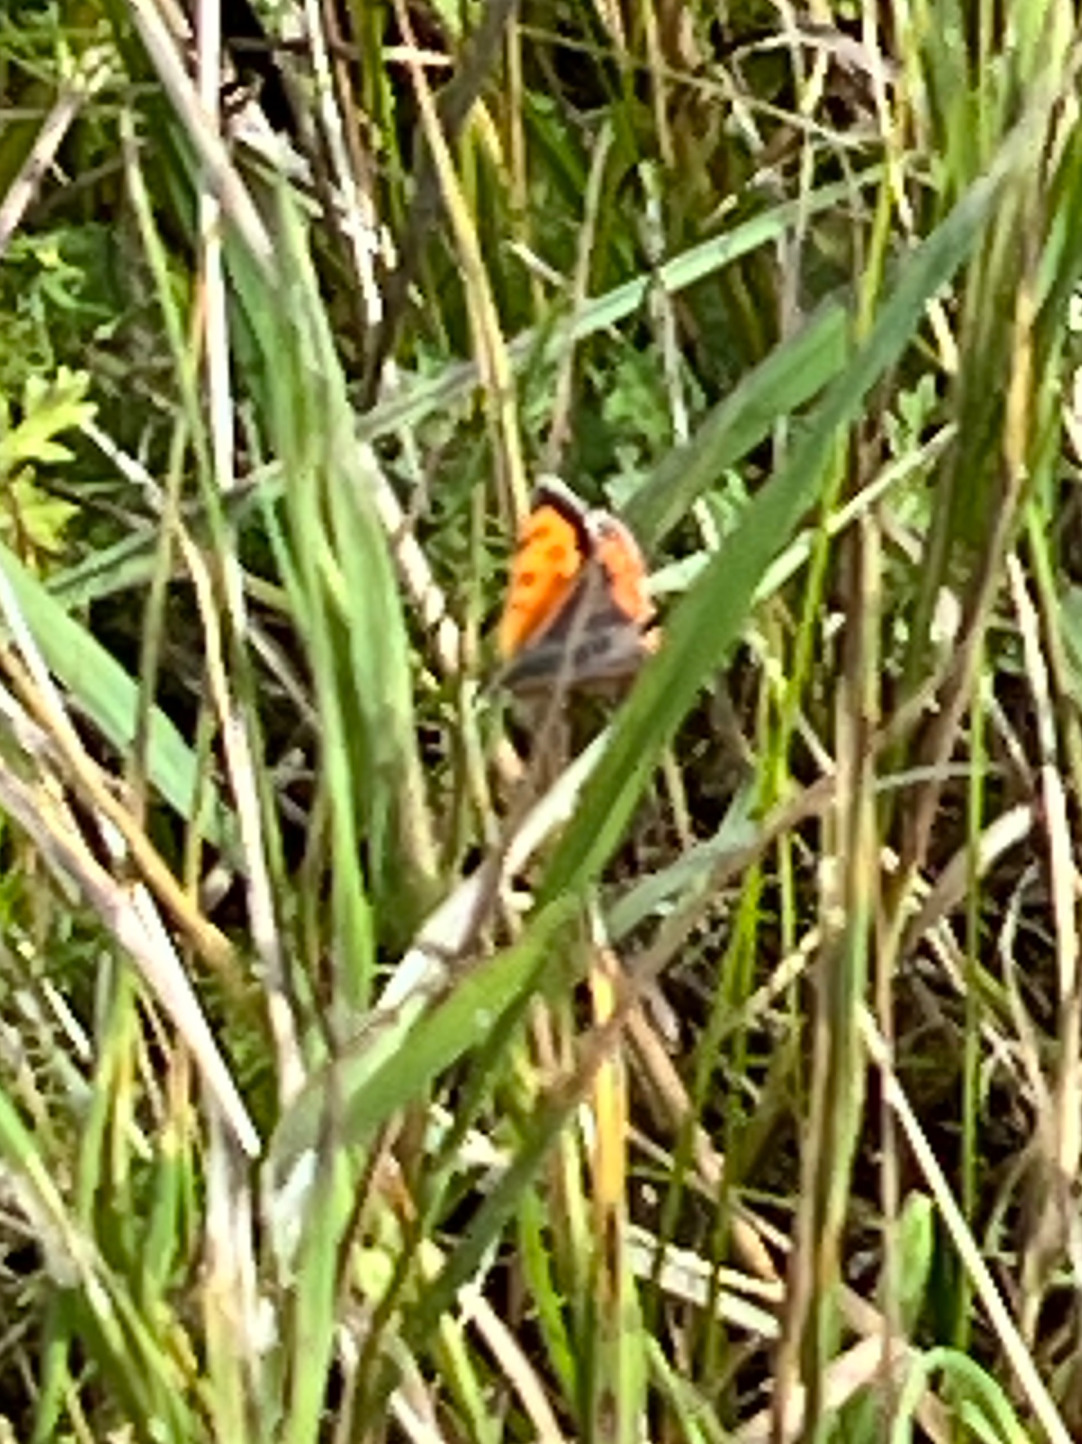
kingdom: Animalia
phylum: Arthropoda
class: Insecta
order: Lepidoptera
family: Lycaenidae
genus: Lycaena
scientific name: Lycaena phlaeas
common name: Lille ildfugl
